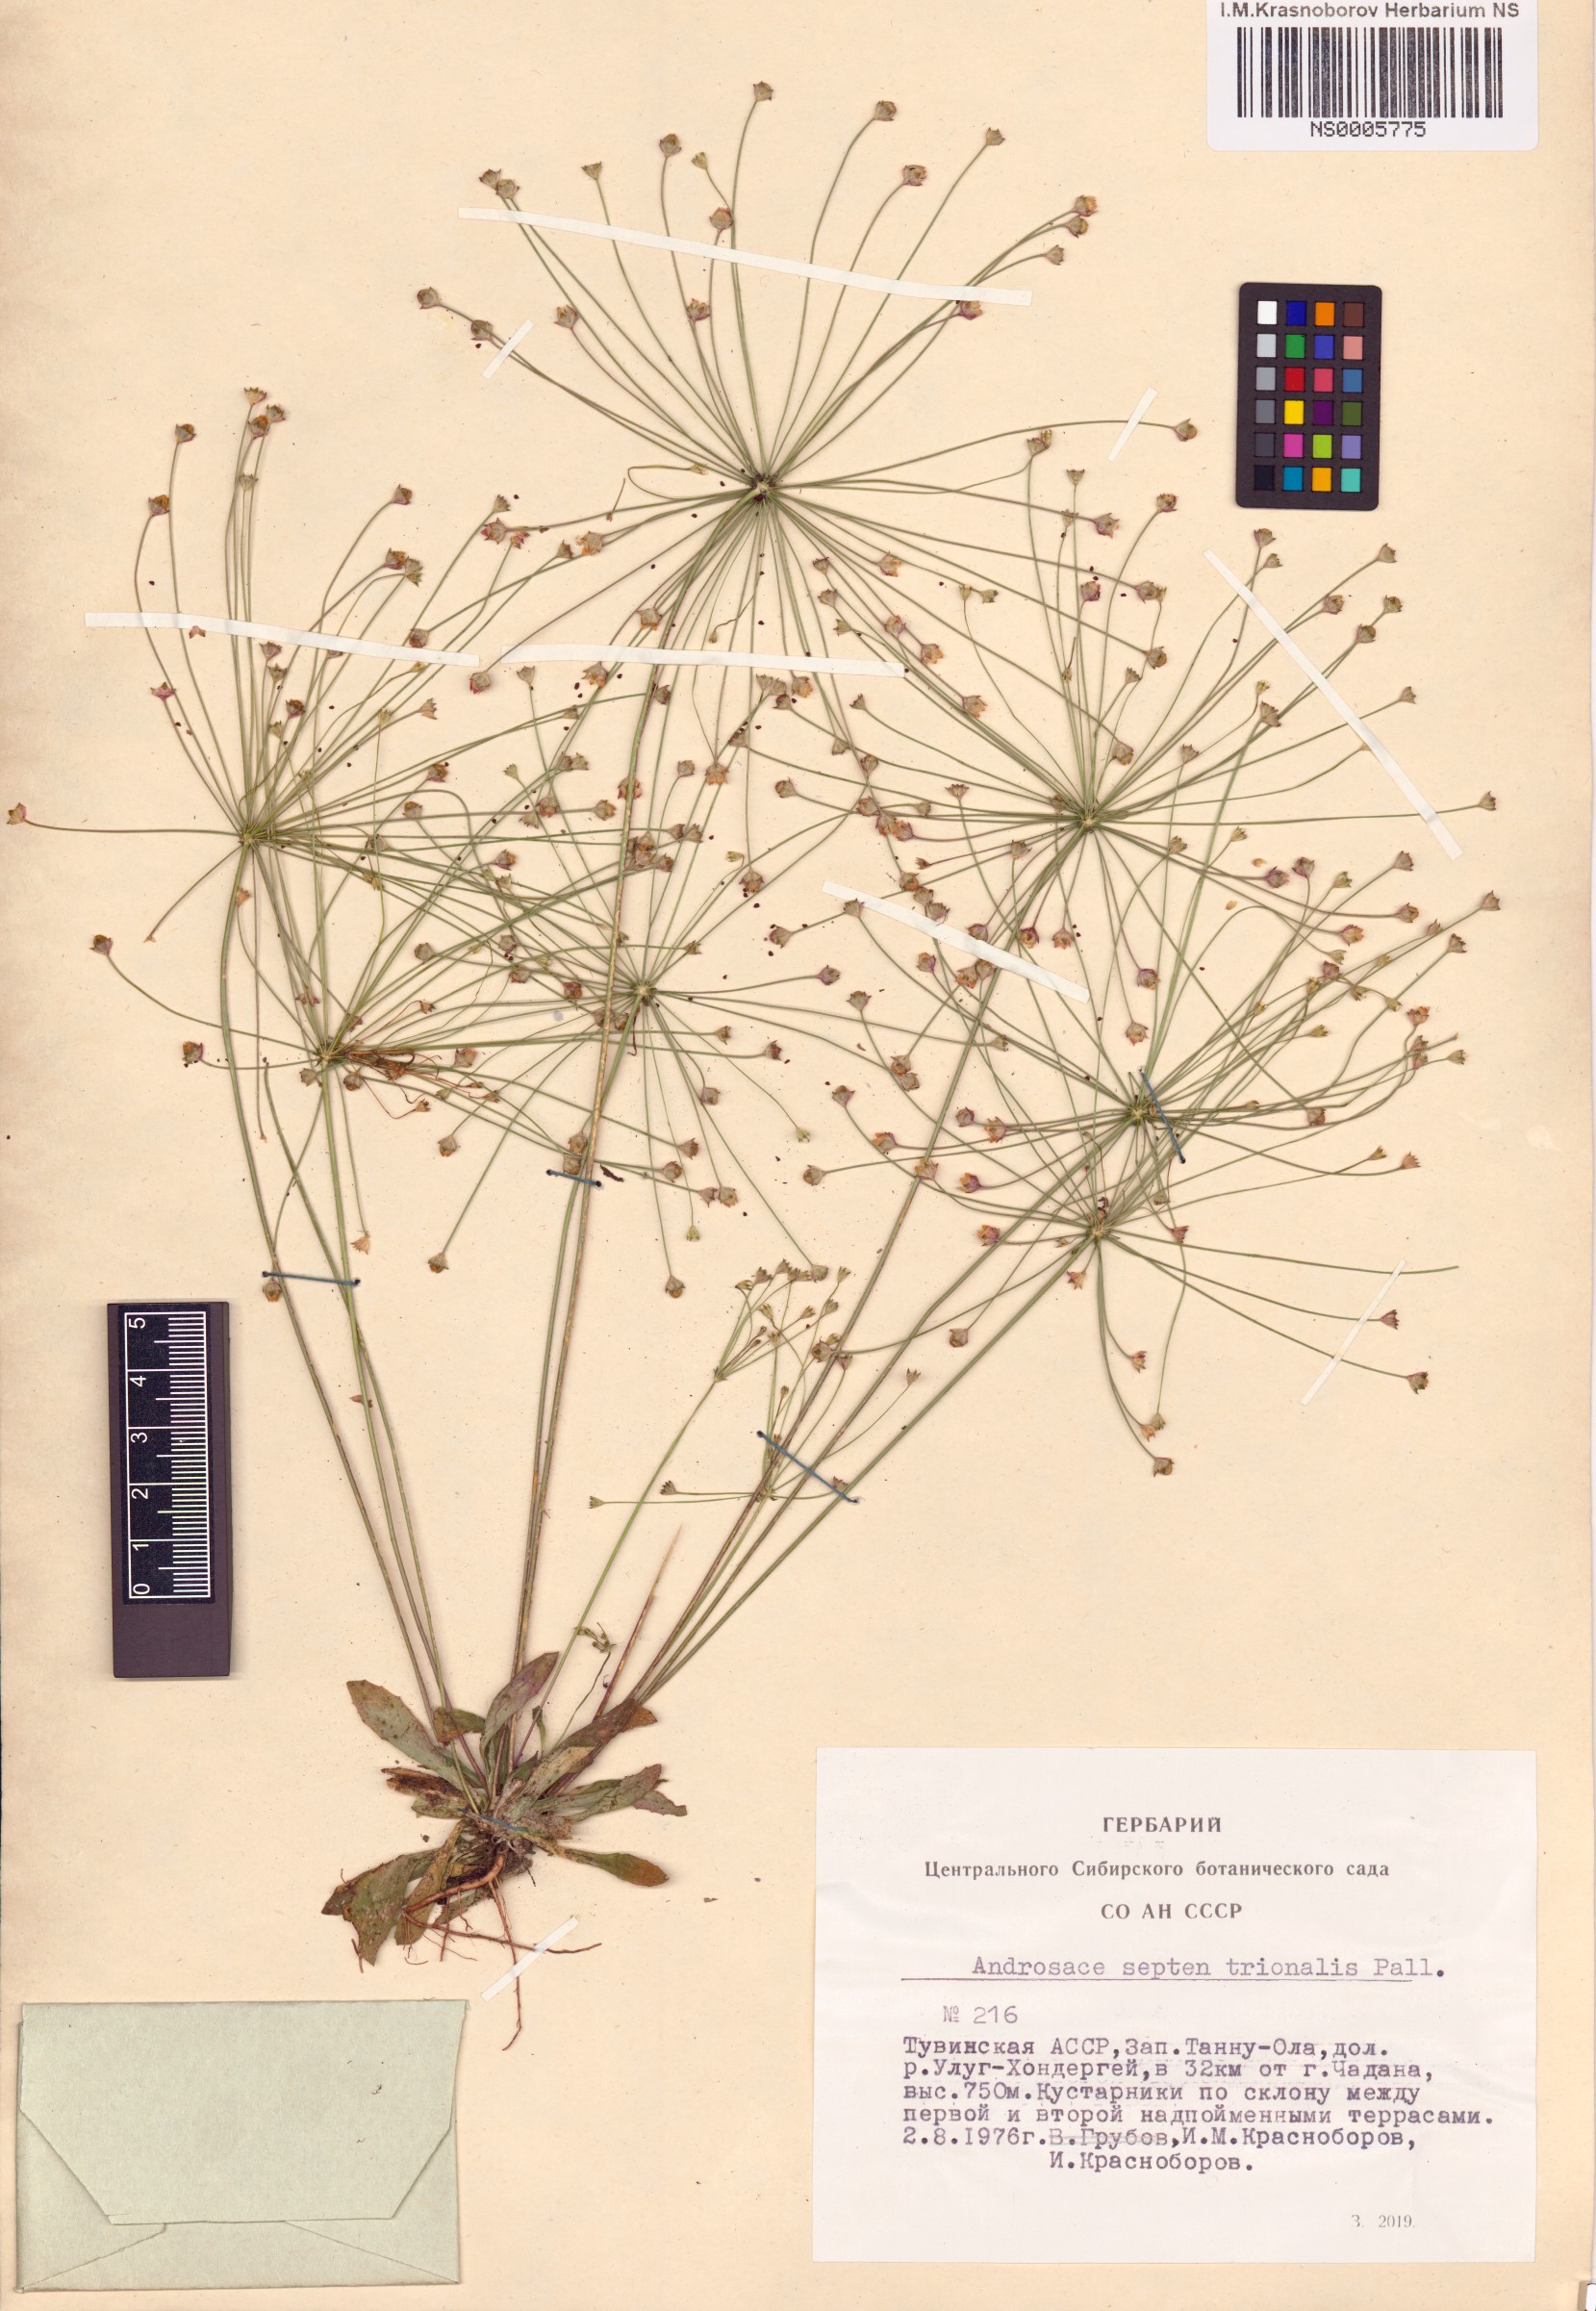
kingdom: Plantae
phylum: Tracheophyta
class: Magnoliopsida
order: Ericales
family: Primulaceae
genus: Androsace
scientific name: Androsace septentrionalis
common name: Hairy northern fairy-candelabra
